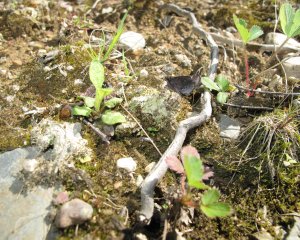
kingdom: Animalia
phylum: Arthropoda
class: Insecta
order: Lepidoptera
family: Hesperiidae
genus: Mastor
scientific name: Mastor vialis
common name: Common Roadside-Skipper
